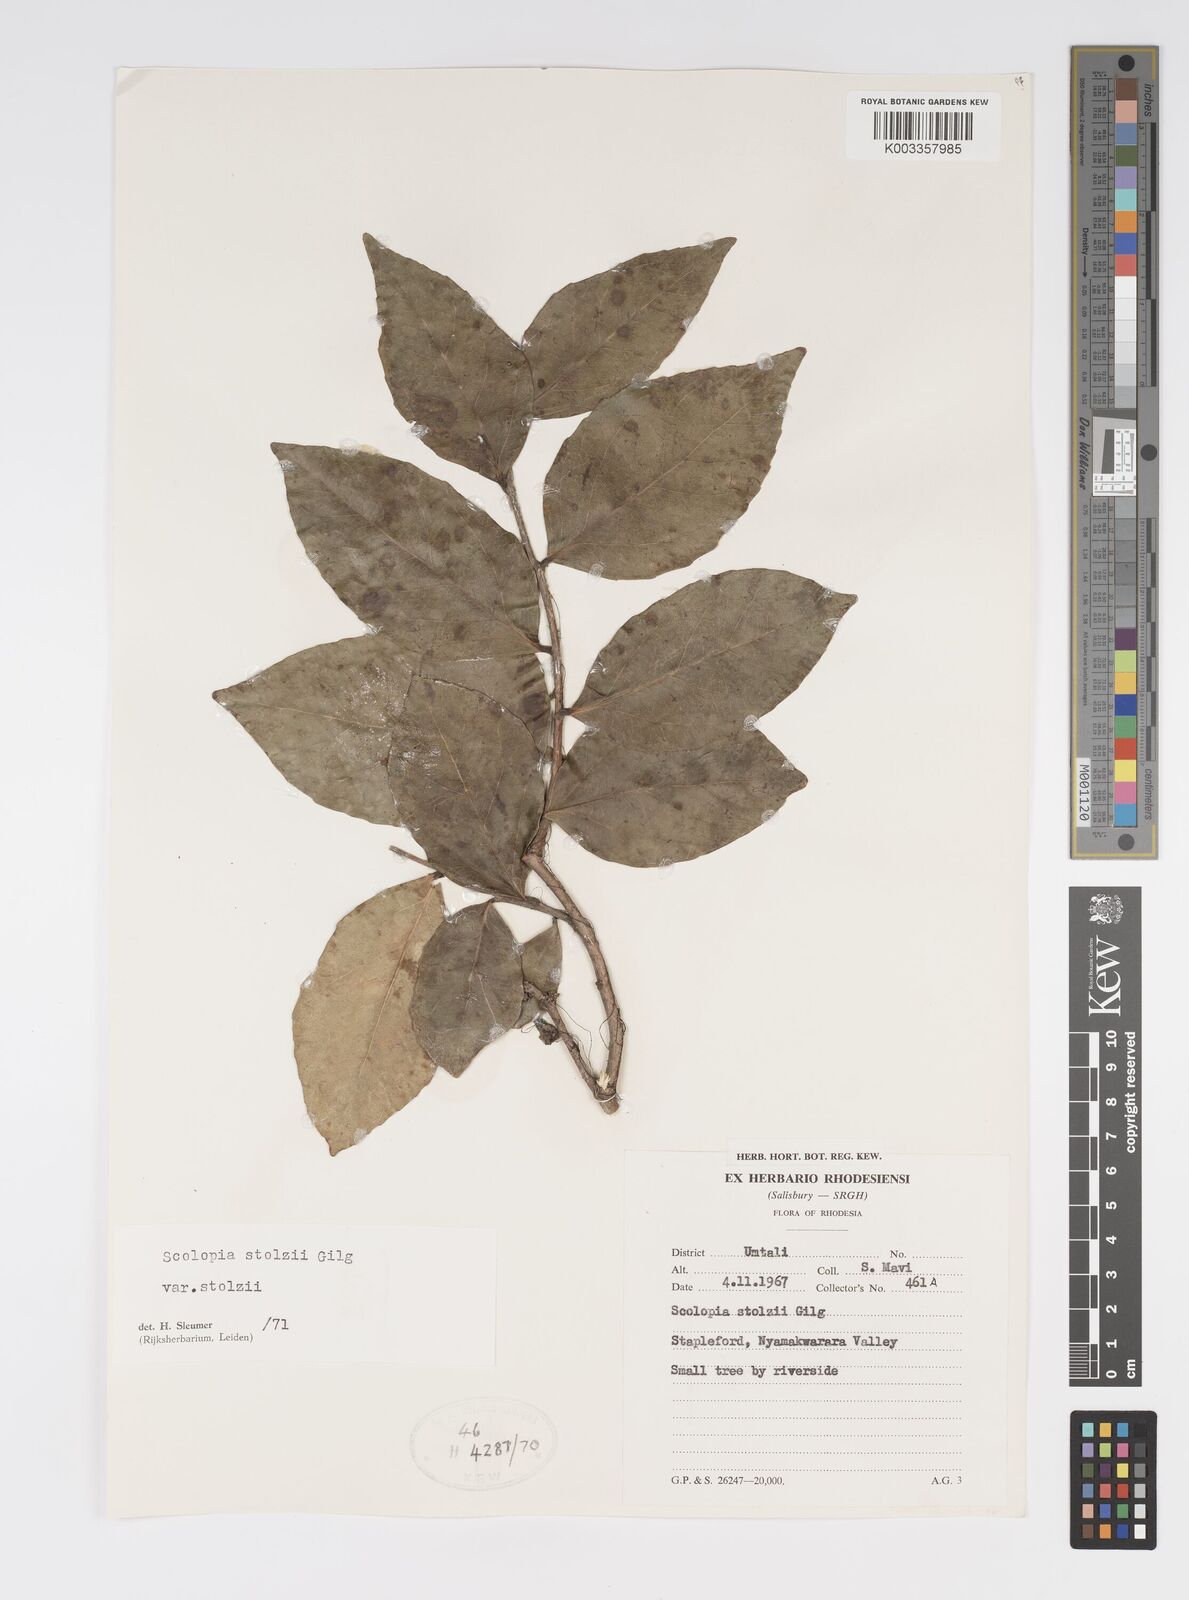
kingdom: Plantae
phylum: Tracheophyta
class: Magnoliopsida
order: Malpighiales
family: Salicaceae
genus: Scolopia
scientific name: Scolopia stolzii
